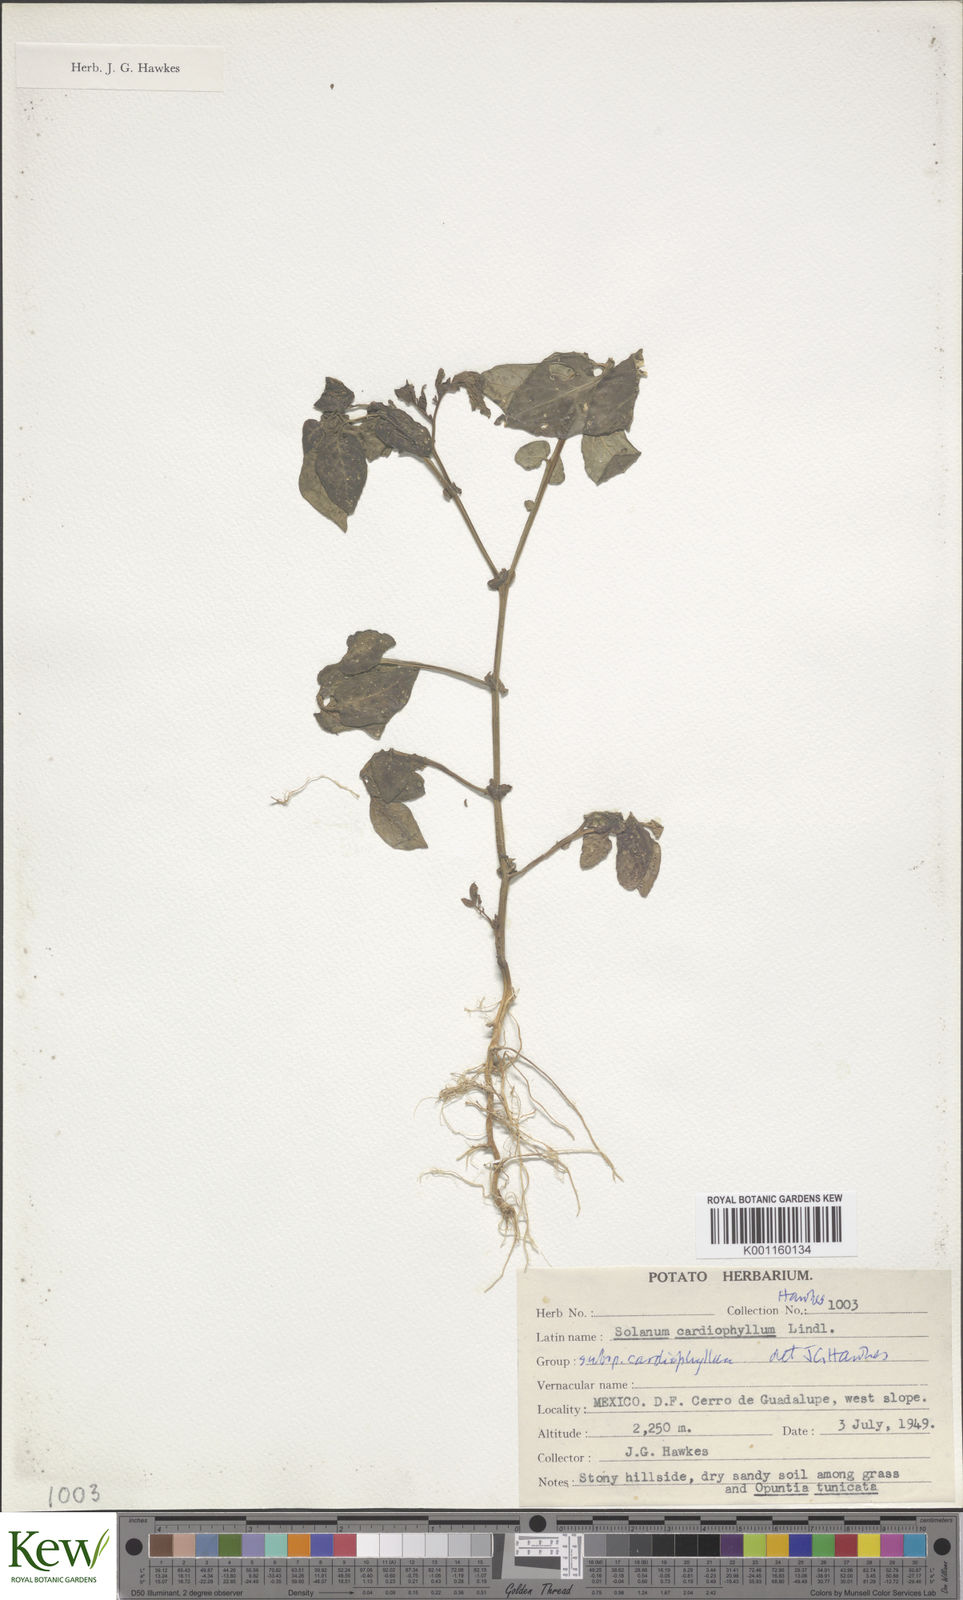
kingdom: Plantae
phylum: Tracheophyta
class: Magnoliopsida
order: Solanales
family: Solanaceae
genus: Solanum
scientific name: Solanum cardiophyllum
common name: Heartleaf horsenettle
